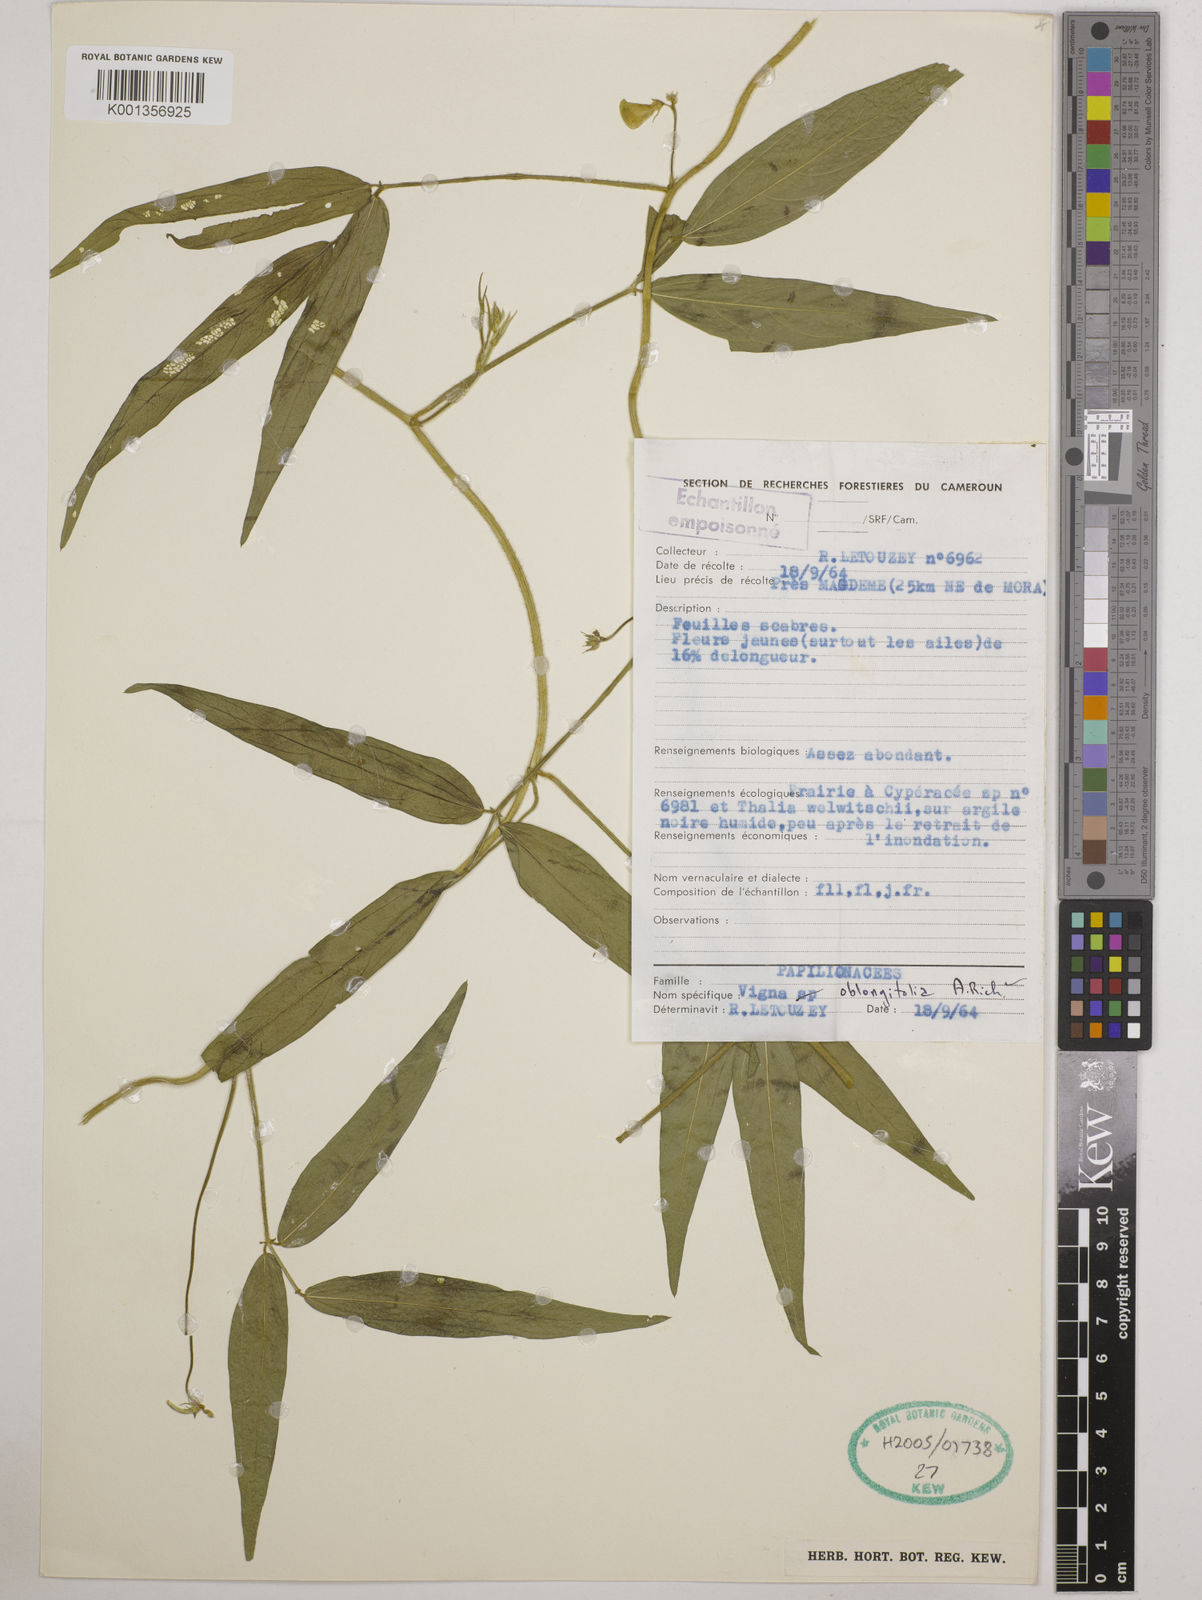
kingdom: Plantae
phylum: Tracheophyta
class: Magnoliopsida
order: Fabales
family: Fabaceae
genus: Vigna
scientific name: Vigna comosa
